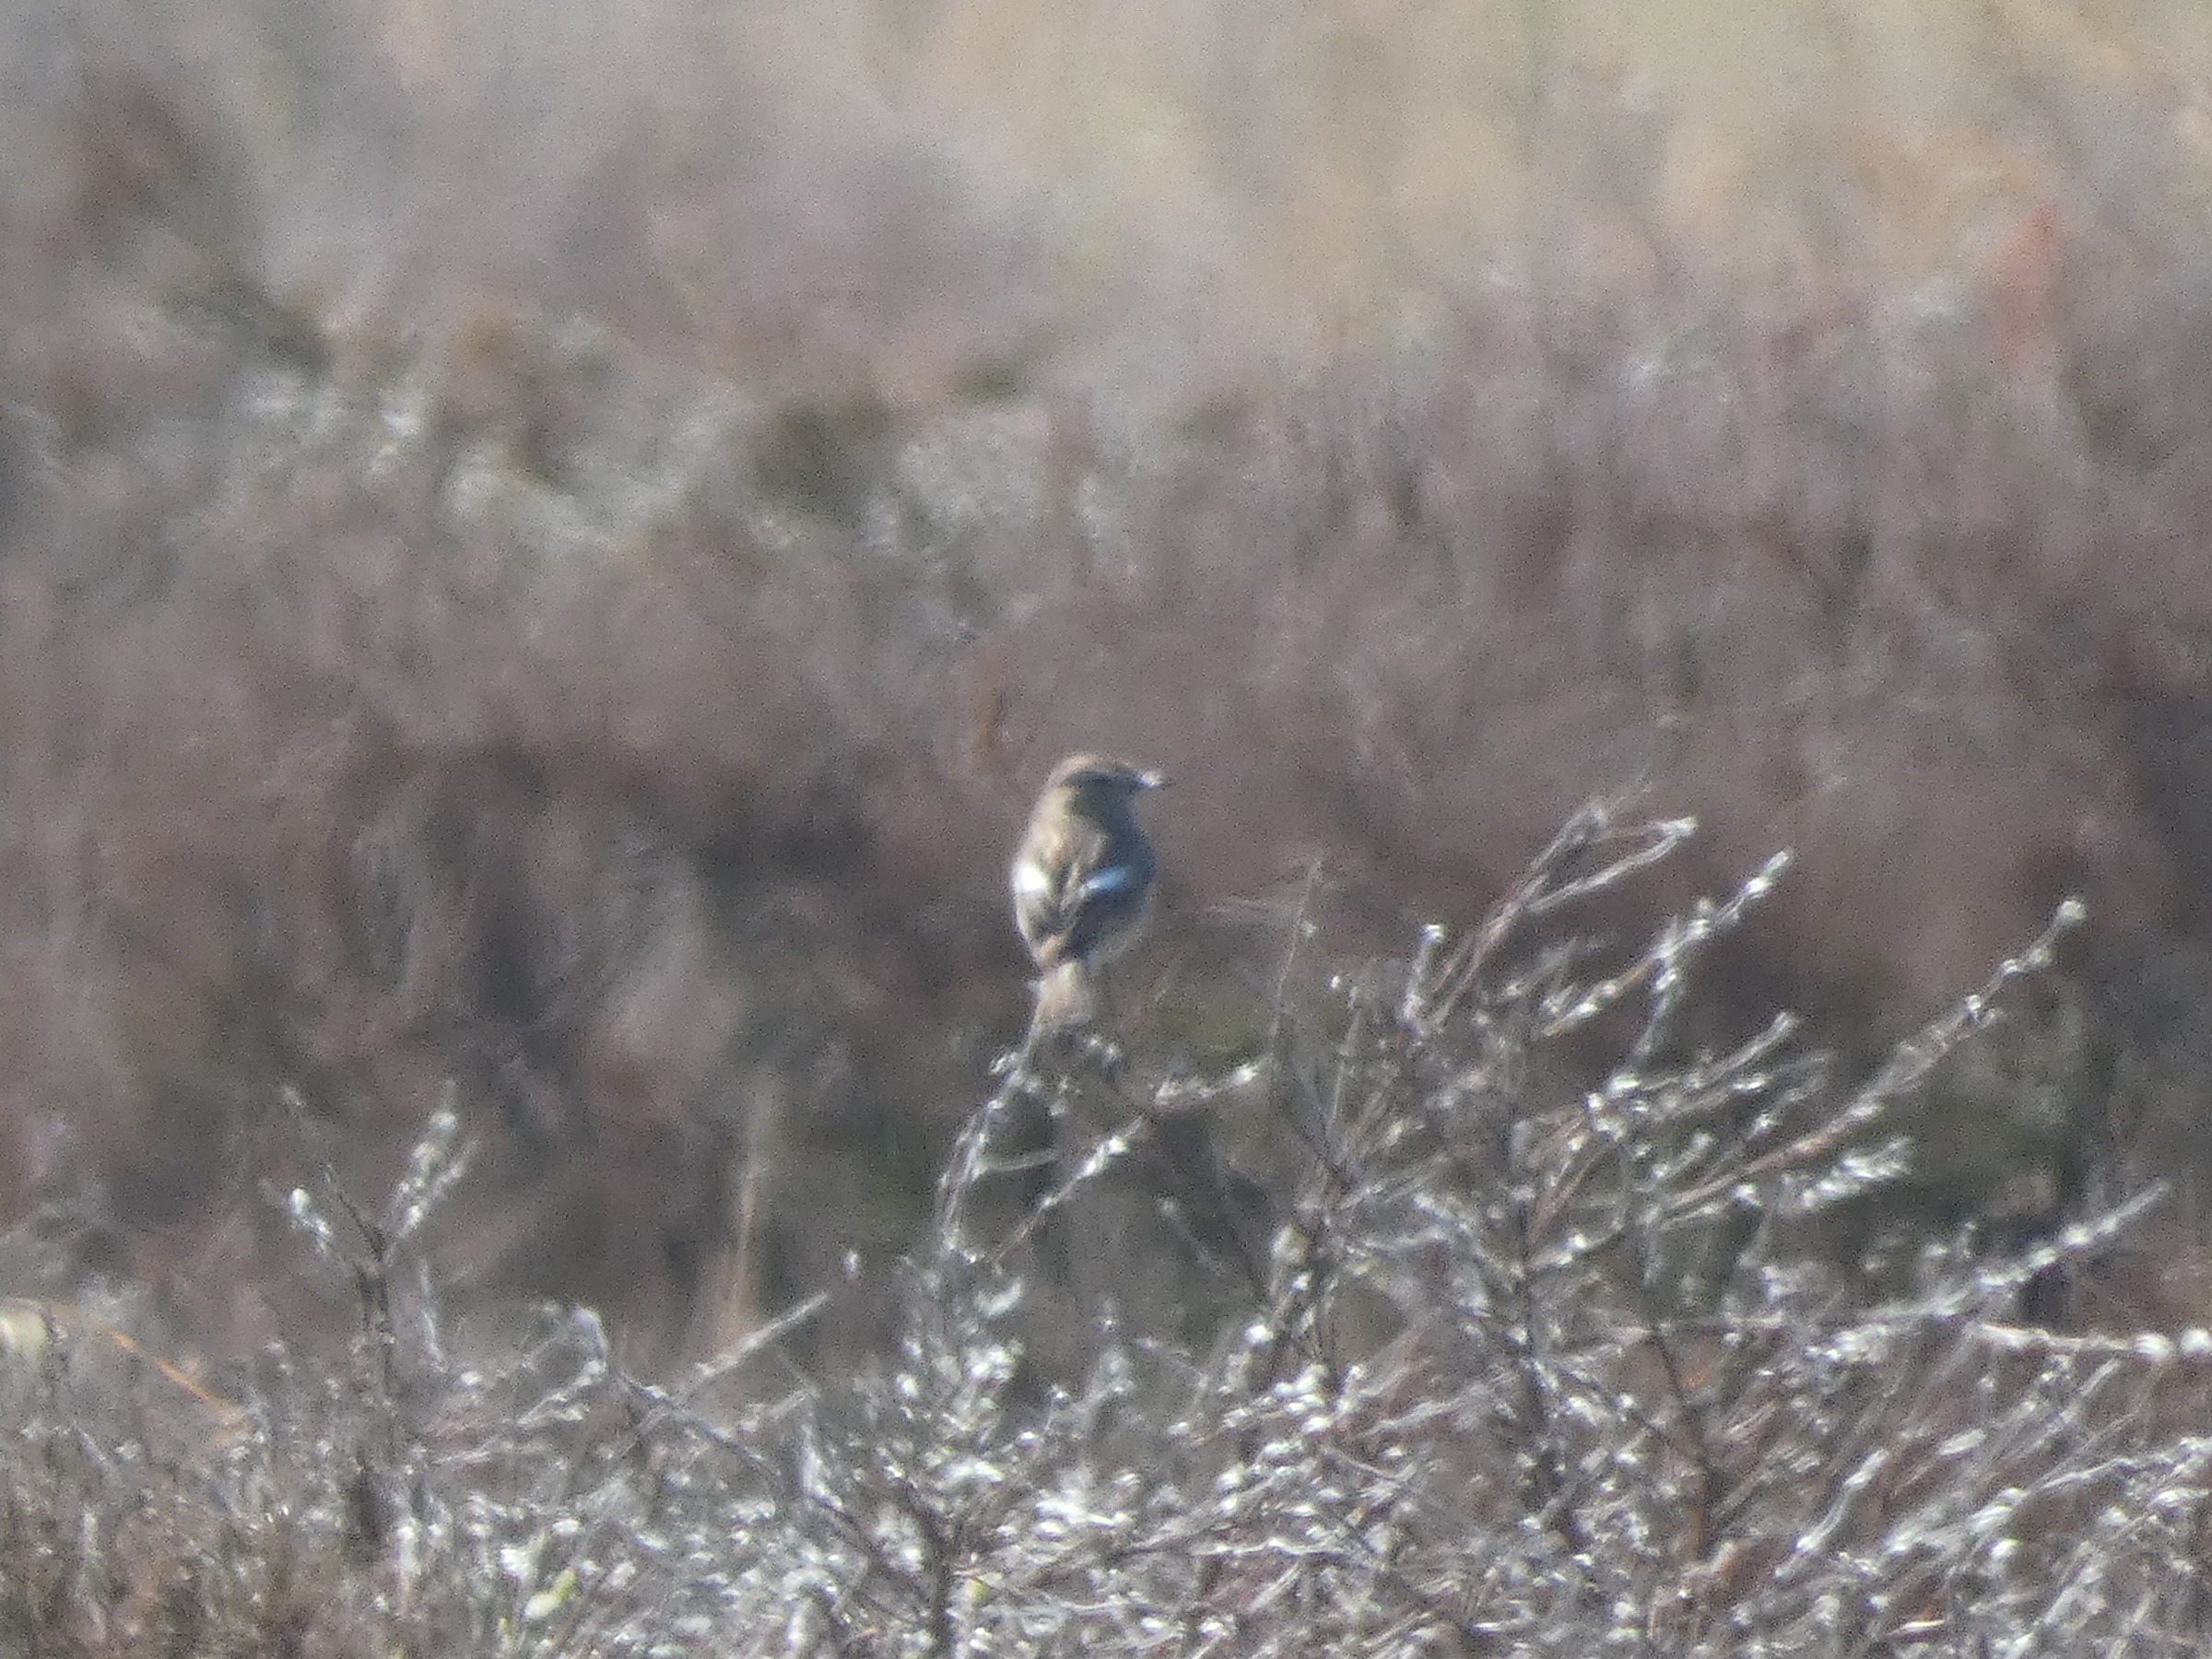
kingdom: Animalia
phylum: Chordata
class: Aves
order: Passeriformes
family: Muscicapidae
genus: Saxicola
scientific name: Saxicola rubicola
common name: Sortstrubet bynkefugl
